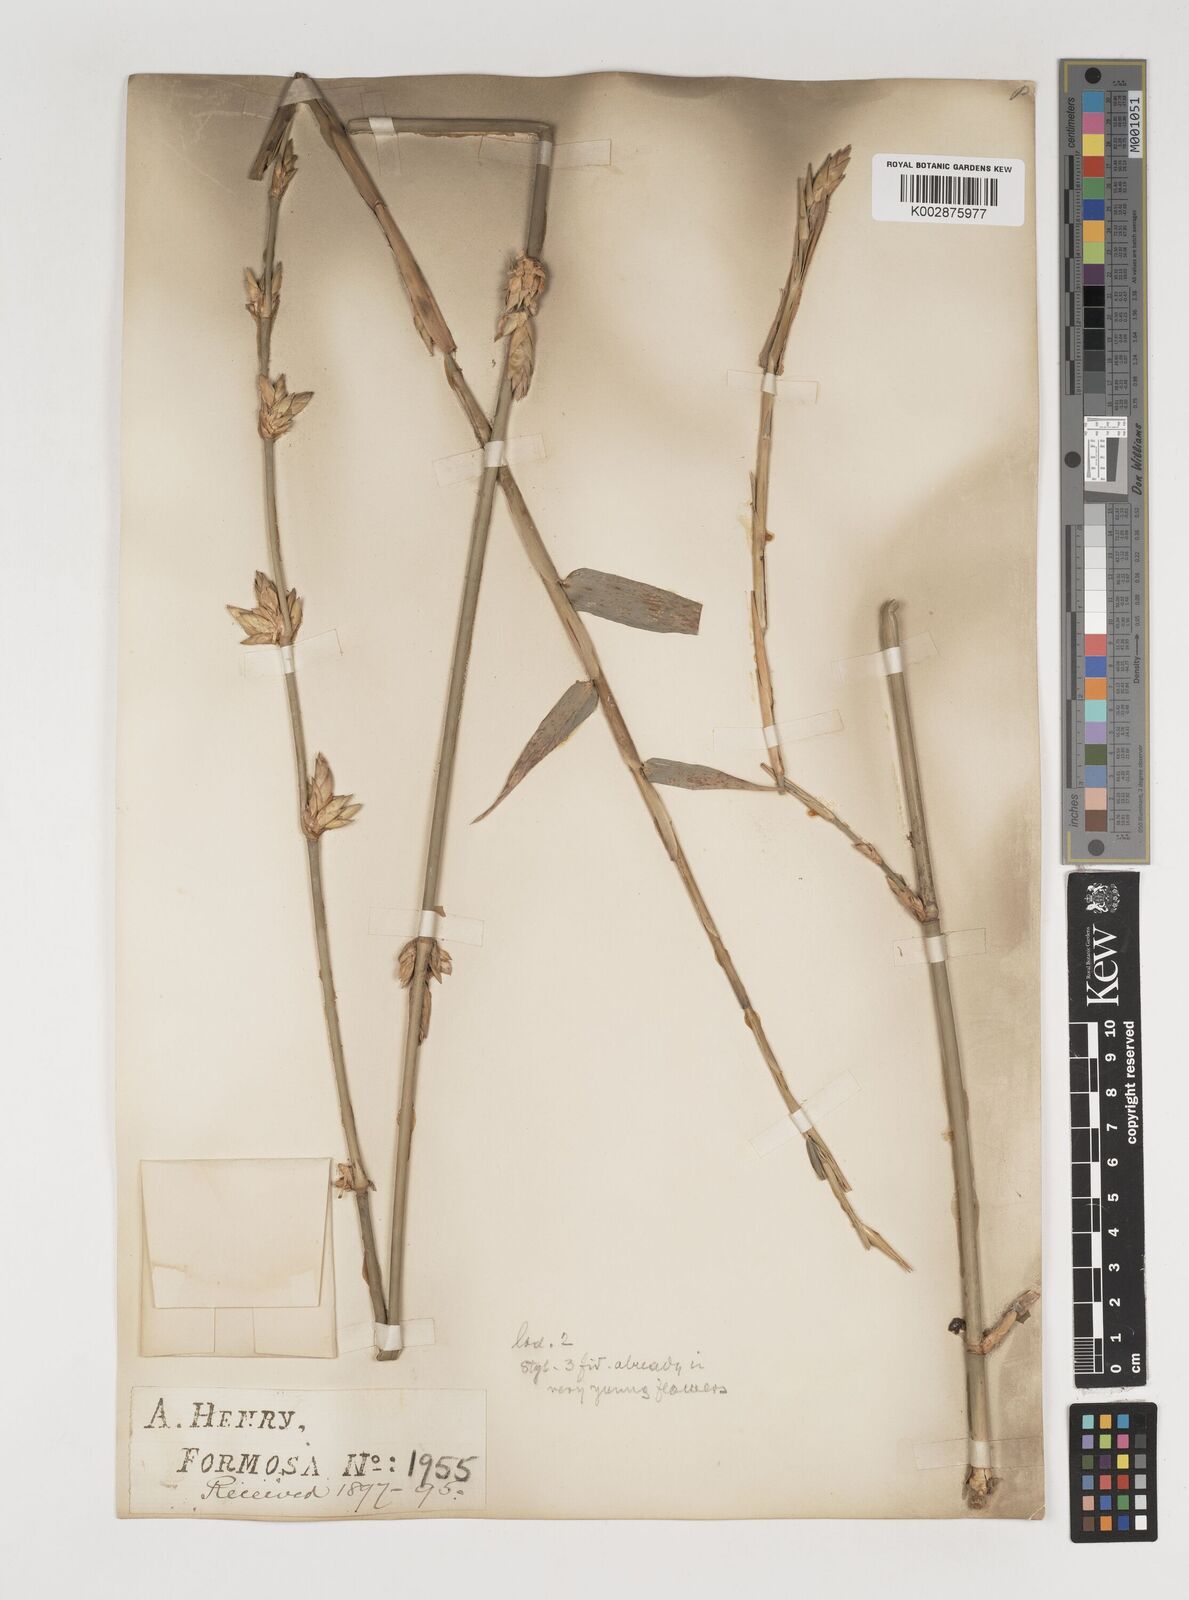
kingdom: Plantae
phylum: Tracheophyta
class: Liliopsida
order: Poales
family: Poaceae
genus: Bambusa
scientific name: Bambusa oldhamii
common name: Giant timber bamboo
